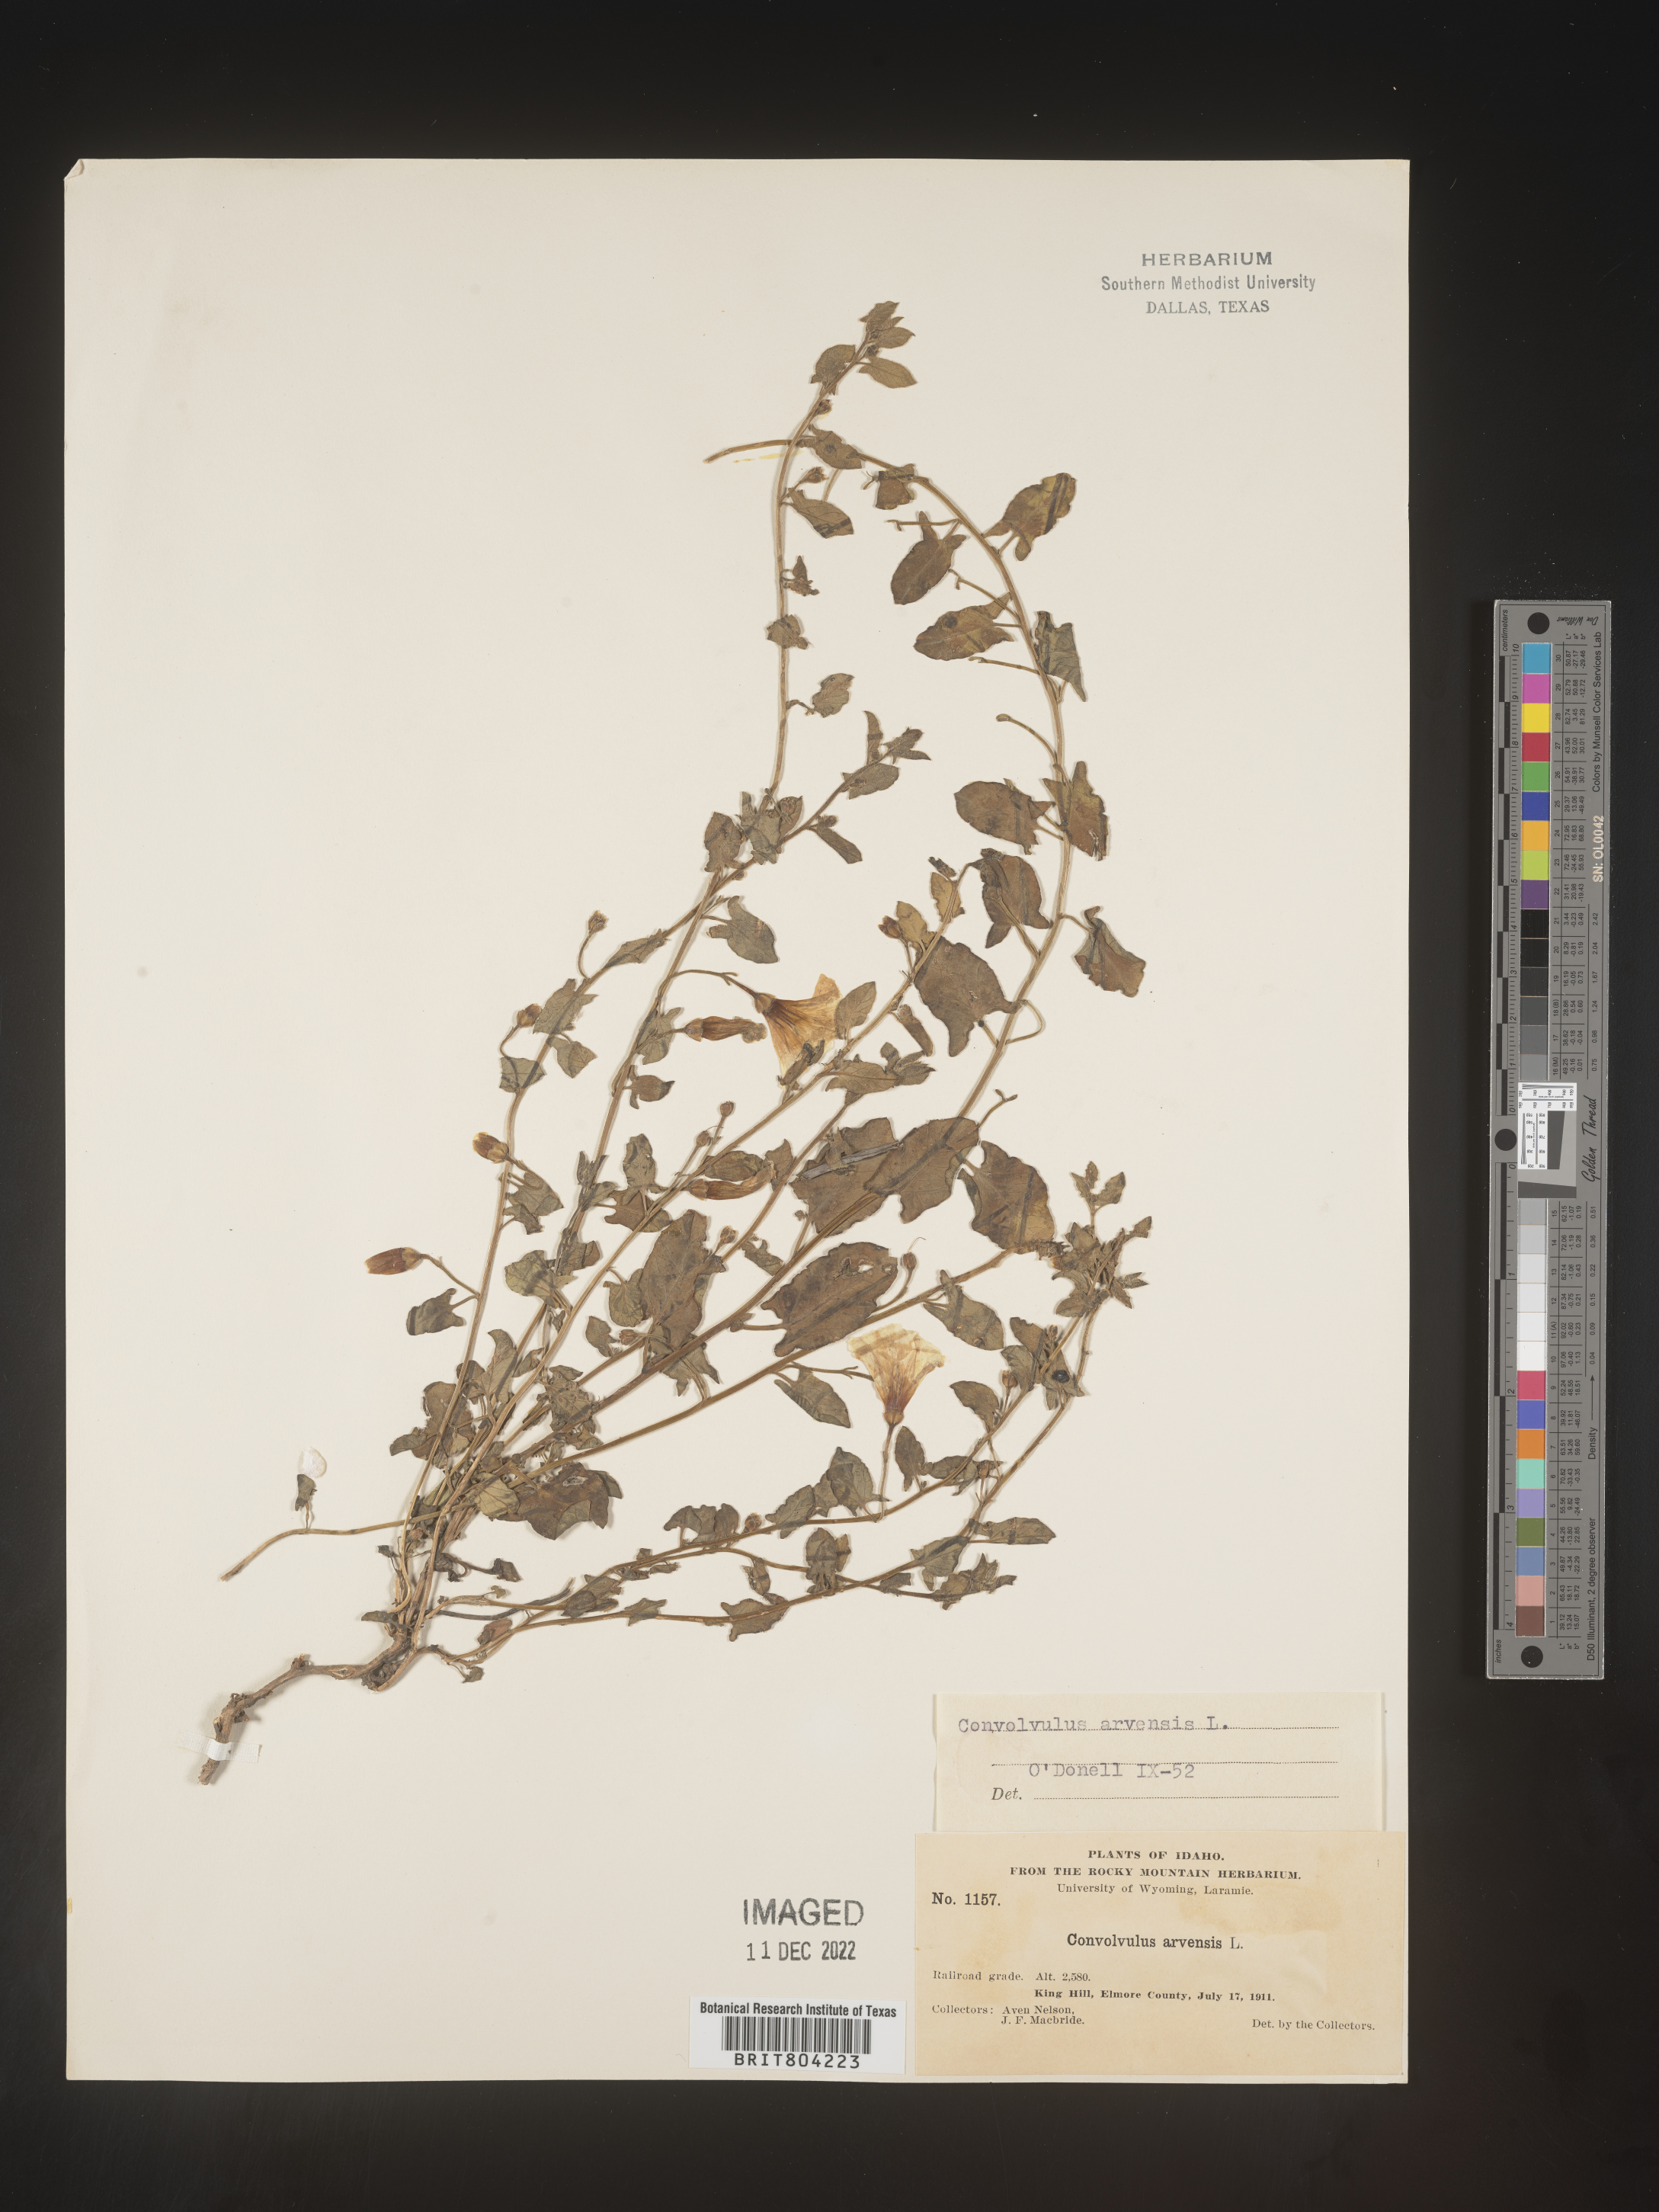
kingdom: Plantae
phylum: Tracheophyta
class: Magnoliopsida
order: Solanales
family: Convolvulaceae
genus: Convolvulus
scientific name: Convolvulus arvensis
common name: Field bindweed
